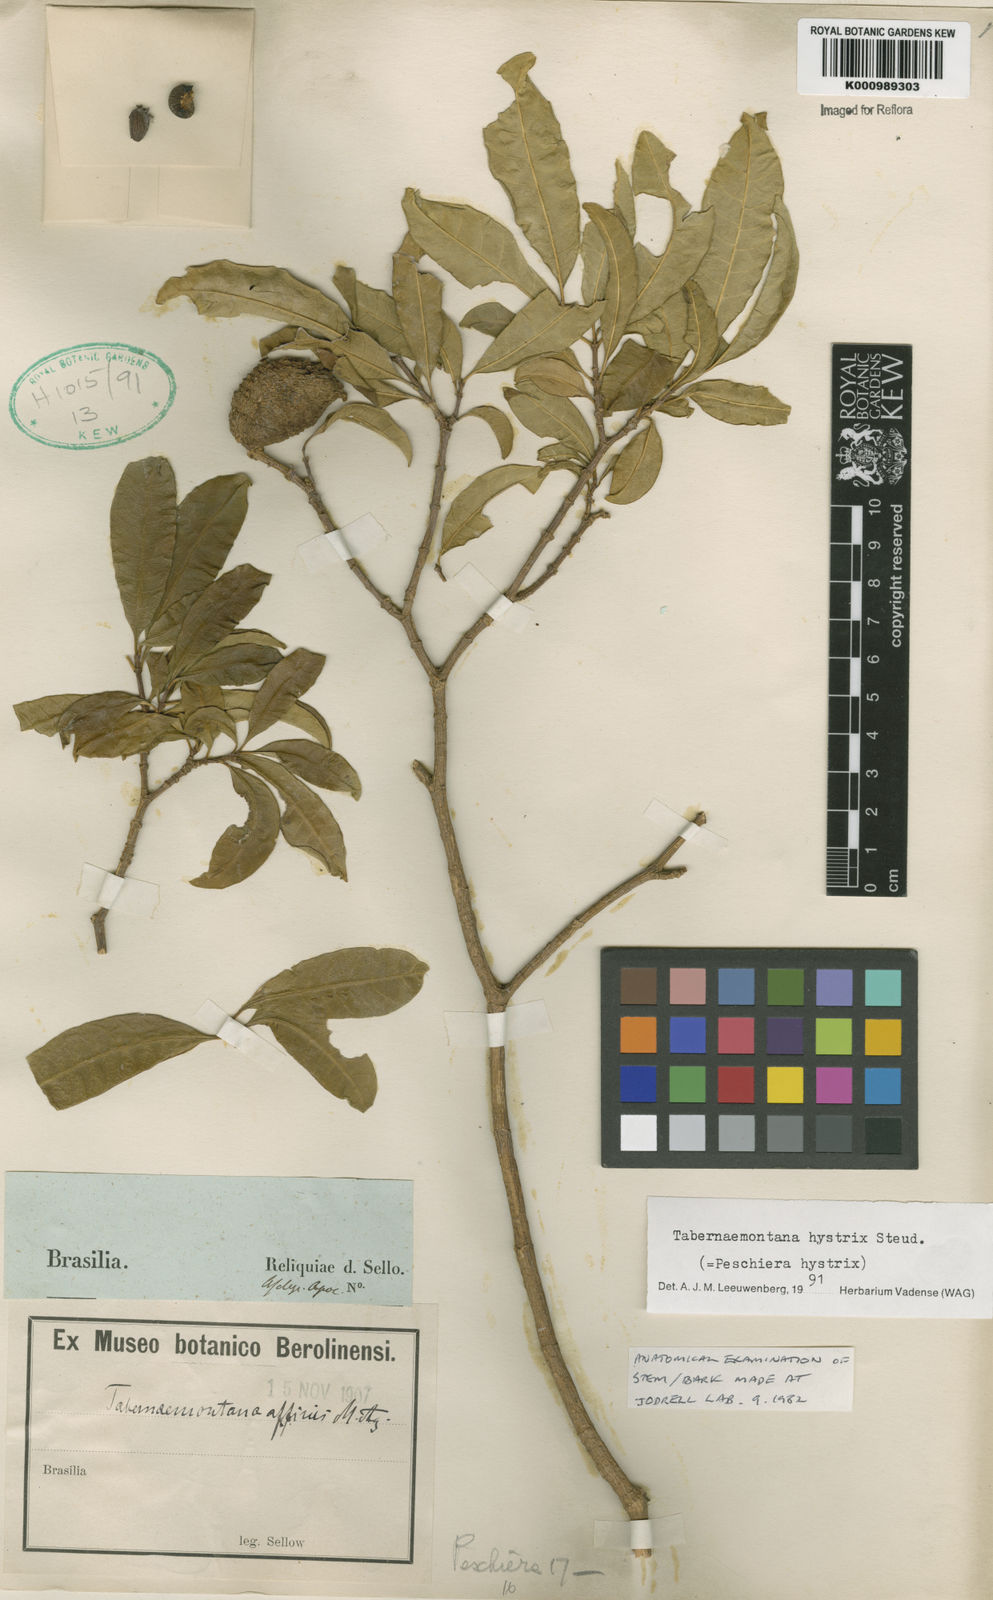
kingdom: Plantae
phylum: Tracheophyta
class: Magnoliopsida
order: Gentianales
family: Apocynaceae
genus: Tabernaemontana
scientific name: Tabernaemontana hystrix
